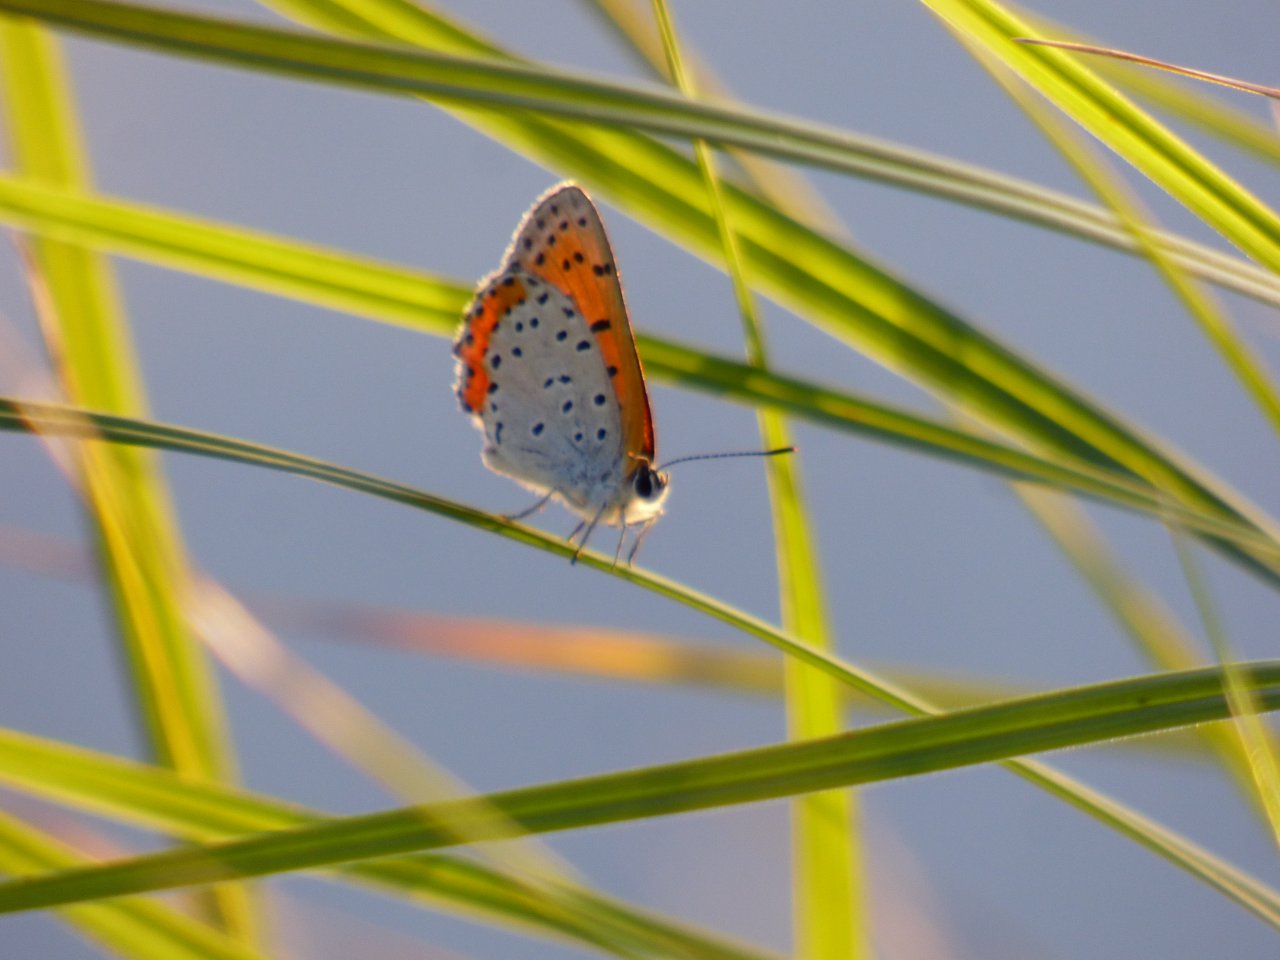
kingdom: Animalia
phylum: Arthropoda
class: Insecta
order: Lepidoptera
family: Sesiidae
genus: Sesia
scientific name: Sesia Lycaena hyllus
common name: Bronze Copper
